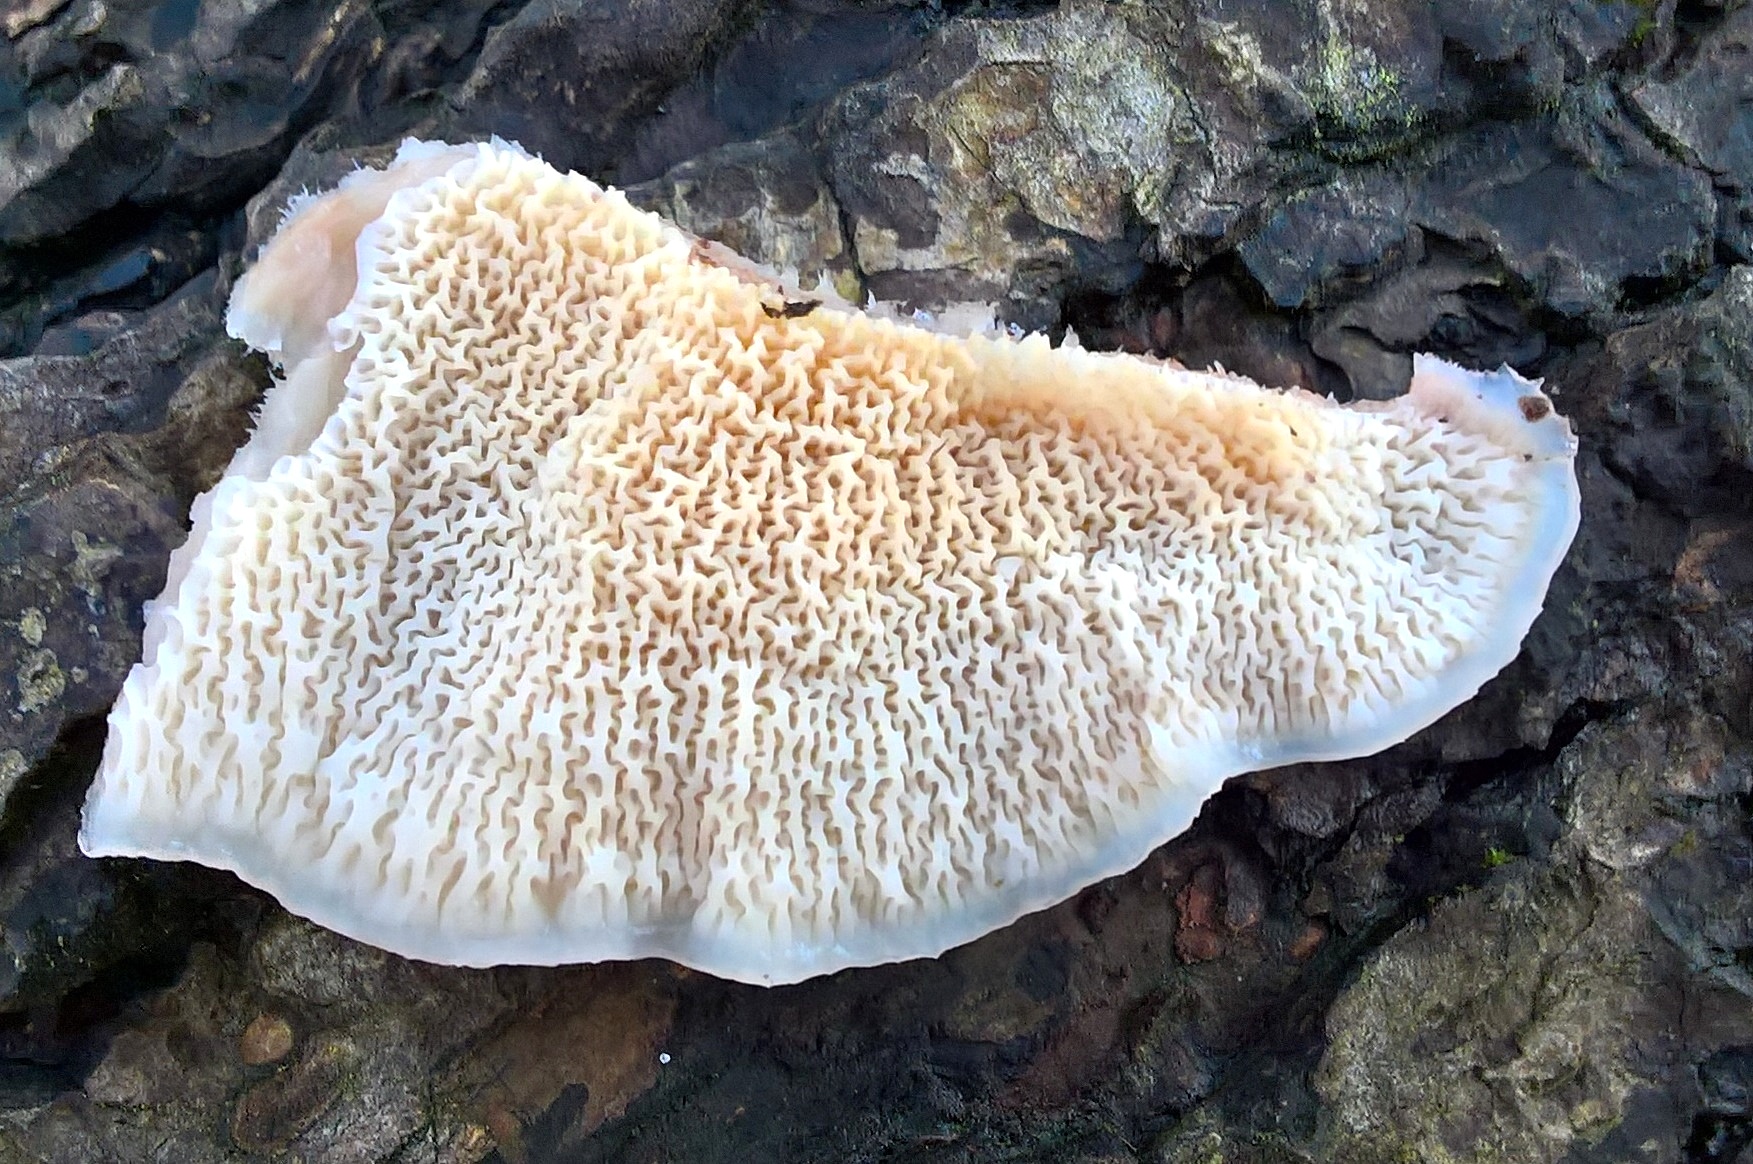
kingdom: Fungi
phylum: Basidiomycota
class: Agaricomycetes
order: Polyporales
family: Meruliaceae
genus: Phlebia
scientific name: Phlebia tremellosa
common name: bævrende åresvamp
